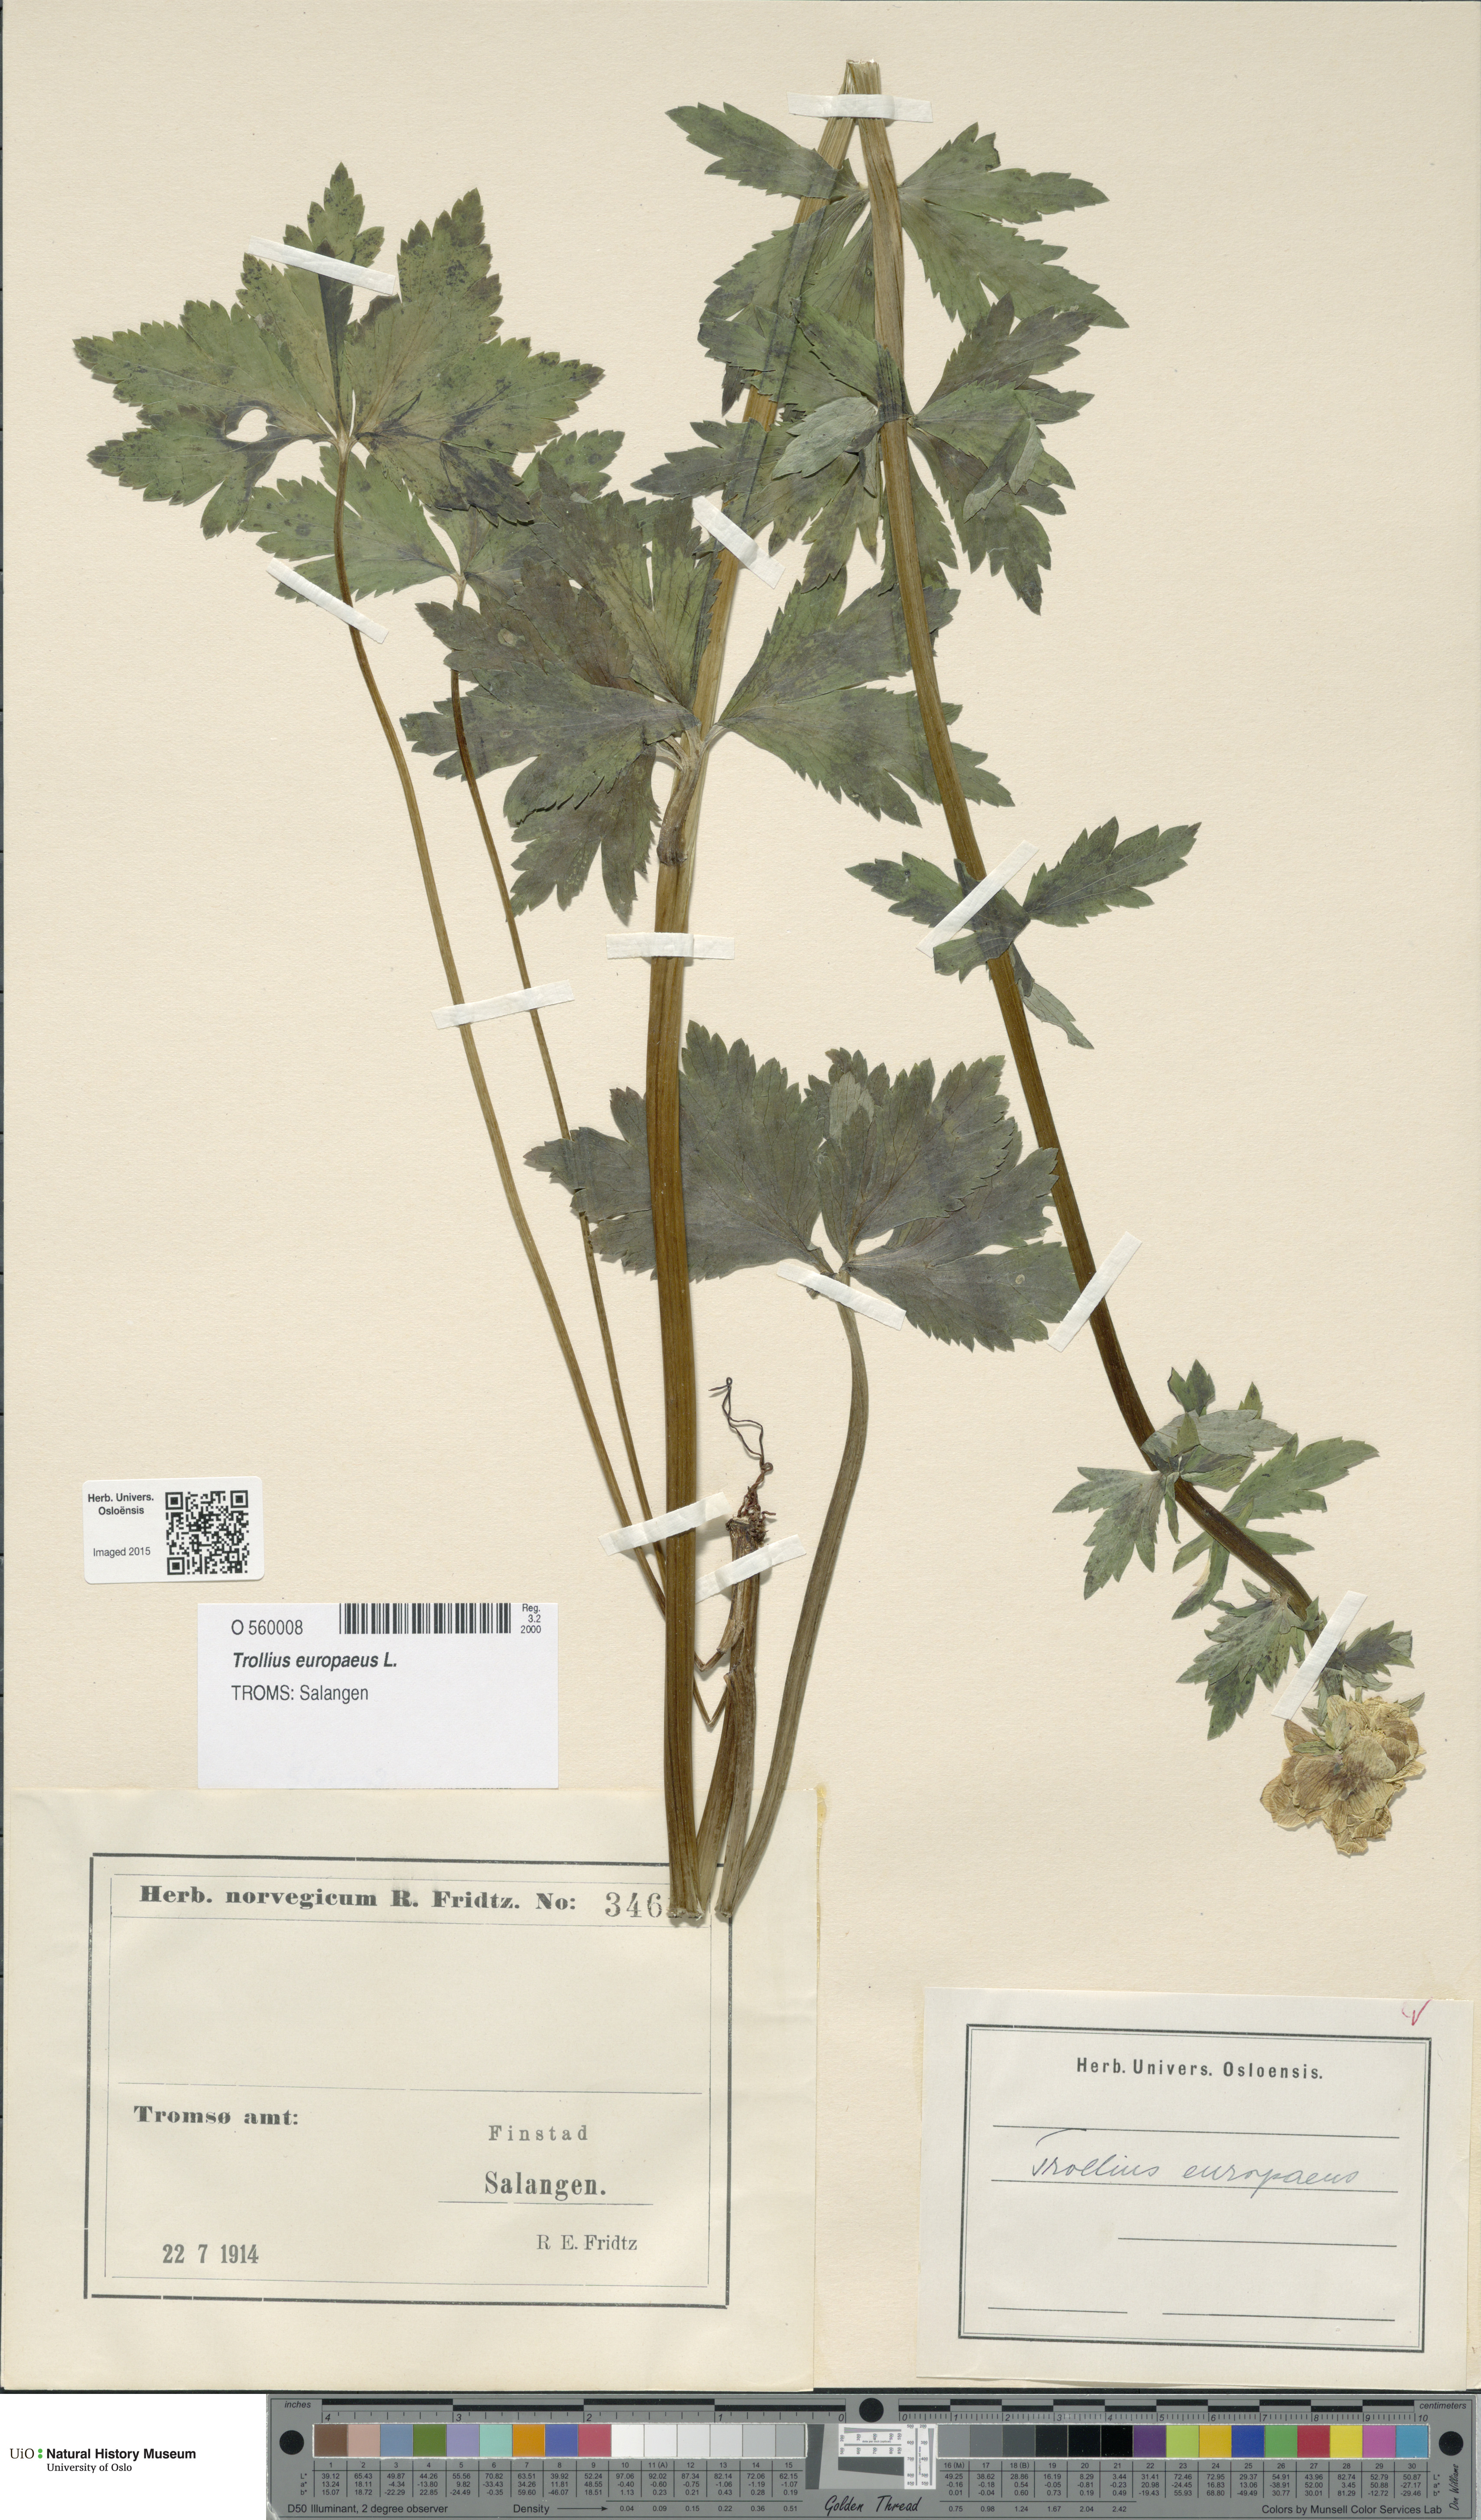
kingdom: Plantae
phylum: Tracheophyta
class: Magnoliopsida
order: Ranunculales
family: Ranunculaceae
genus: Trollius
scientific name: Trollius europaeus
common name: European globeflower
